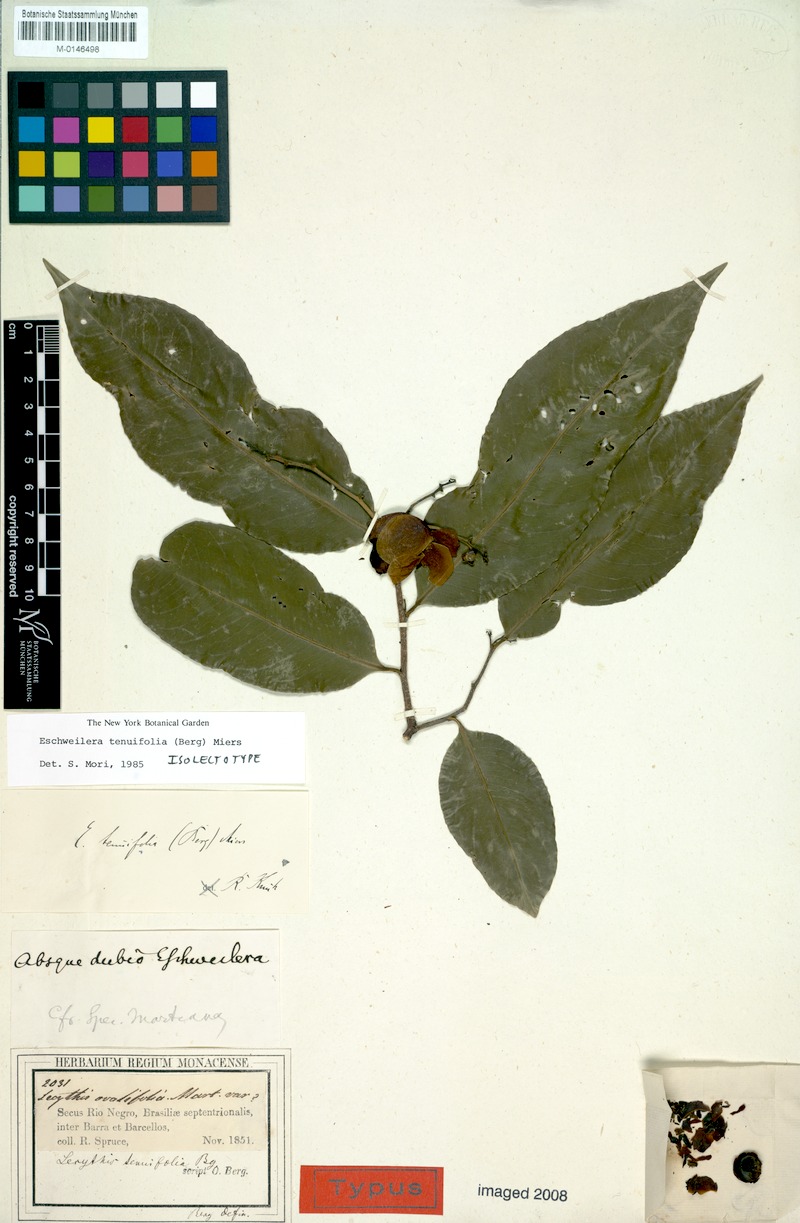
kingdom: Plantae
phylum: Tracheophyta
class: Magnoliopsida
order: Ericales
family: Lecythidaceae
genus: Eschweilera
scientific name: Eschweilera tenuifolia
